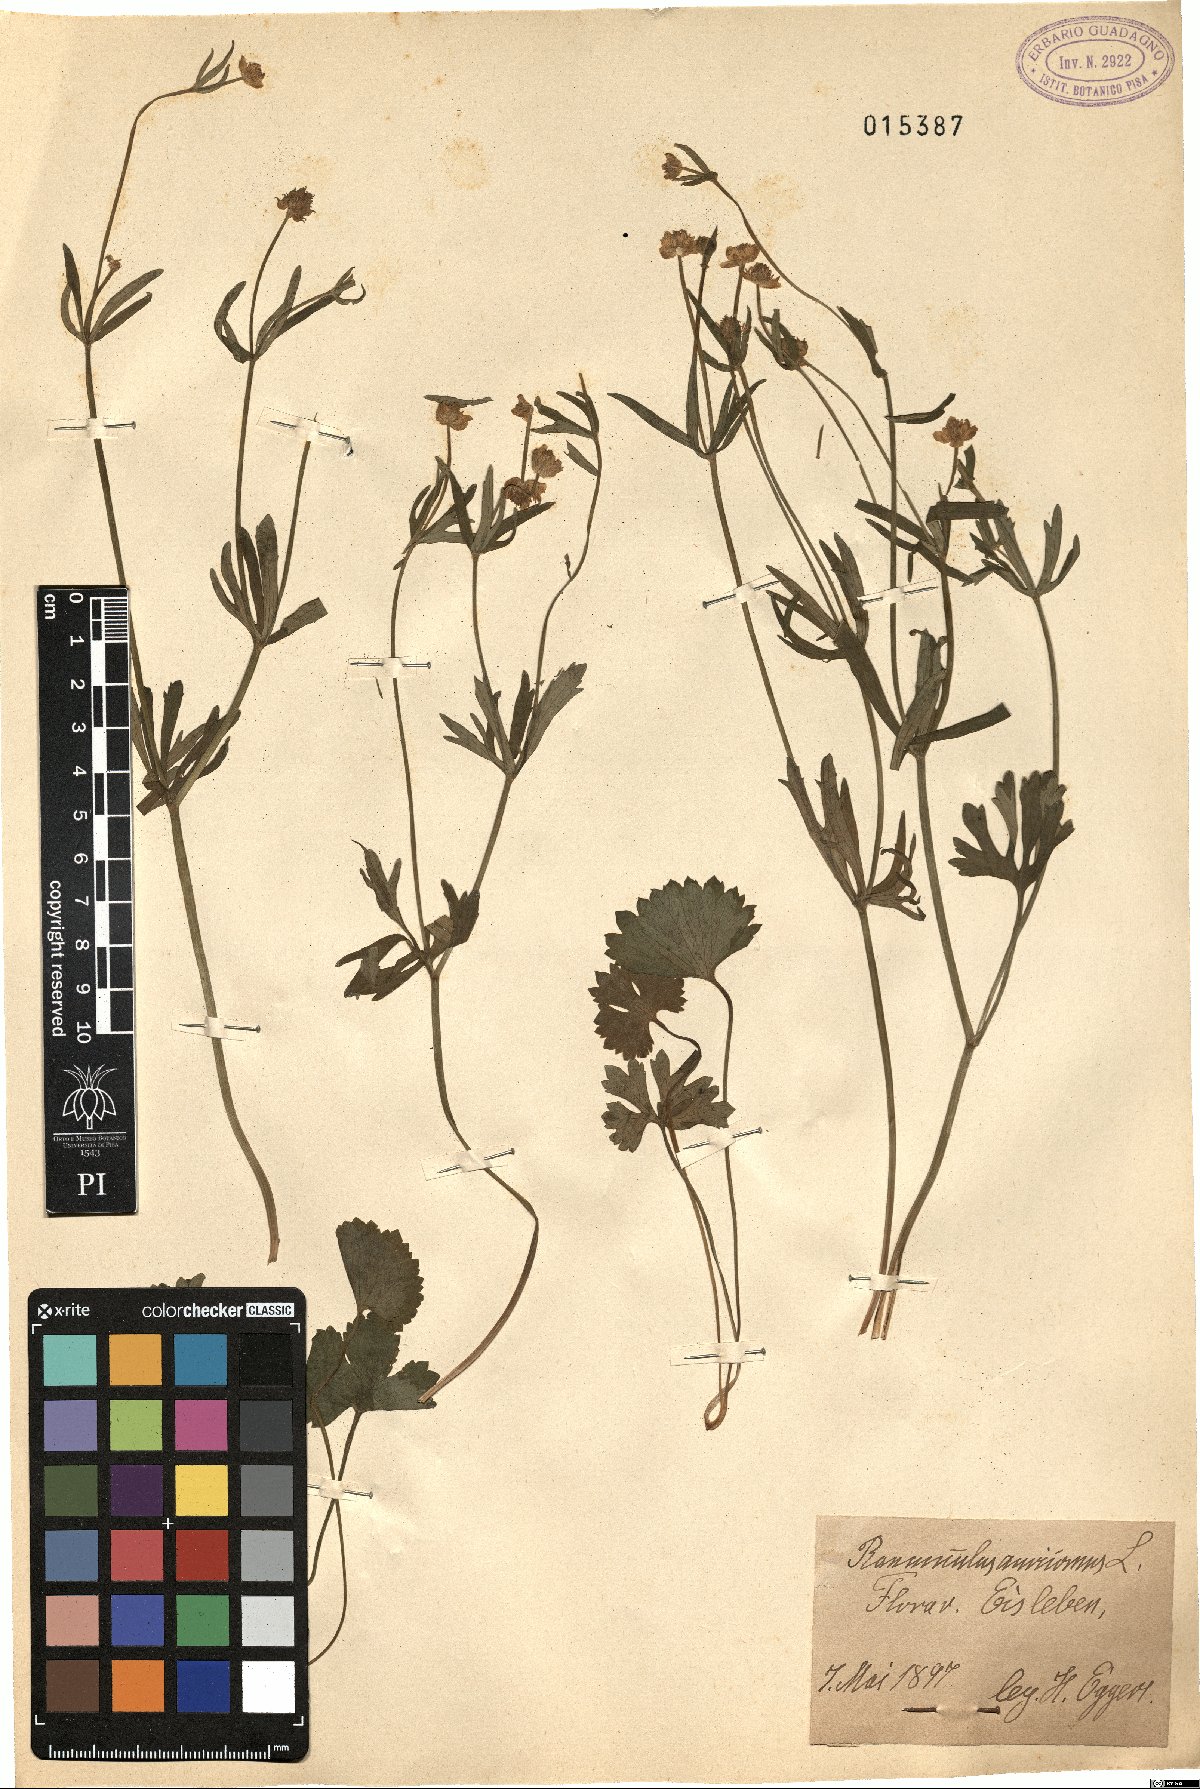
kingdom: Plantae
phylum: Tracheophyta
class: Magnoliopsida
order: Ranunculales
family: Ranunculaceae
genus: Ranunculus
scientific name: Ranunculus auricomus
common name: Goldilocks buttercup
